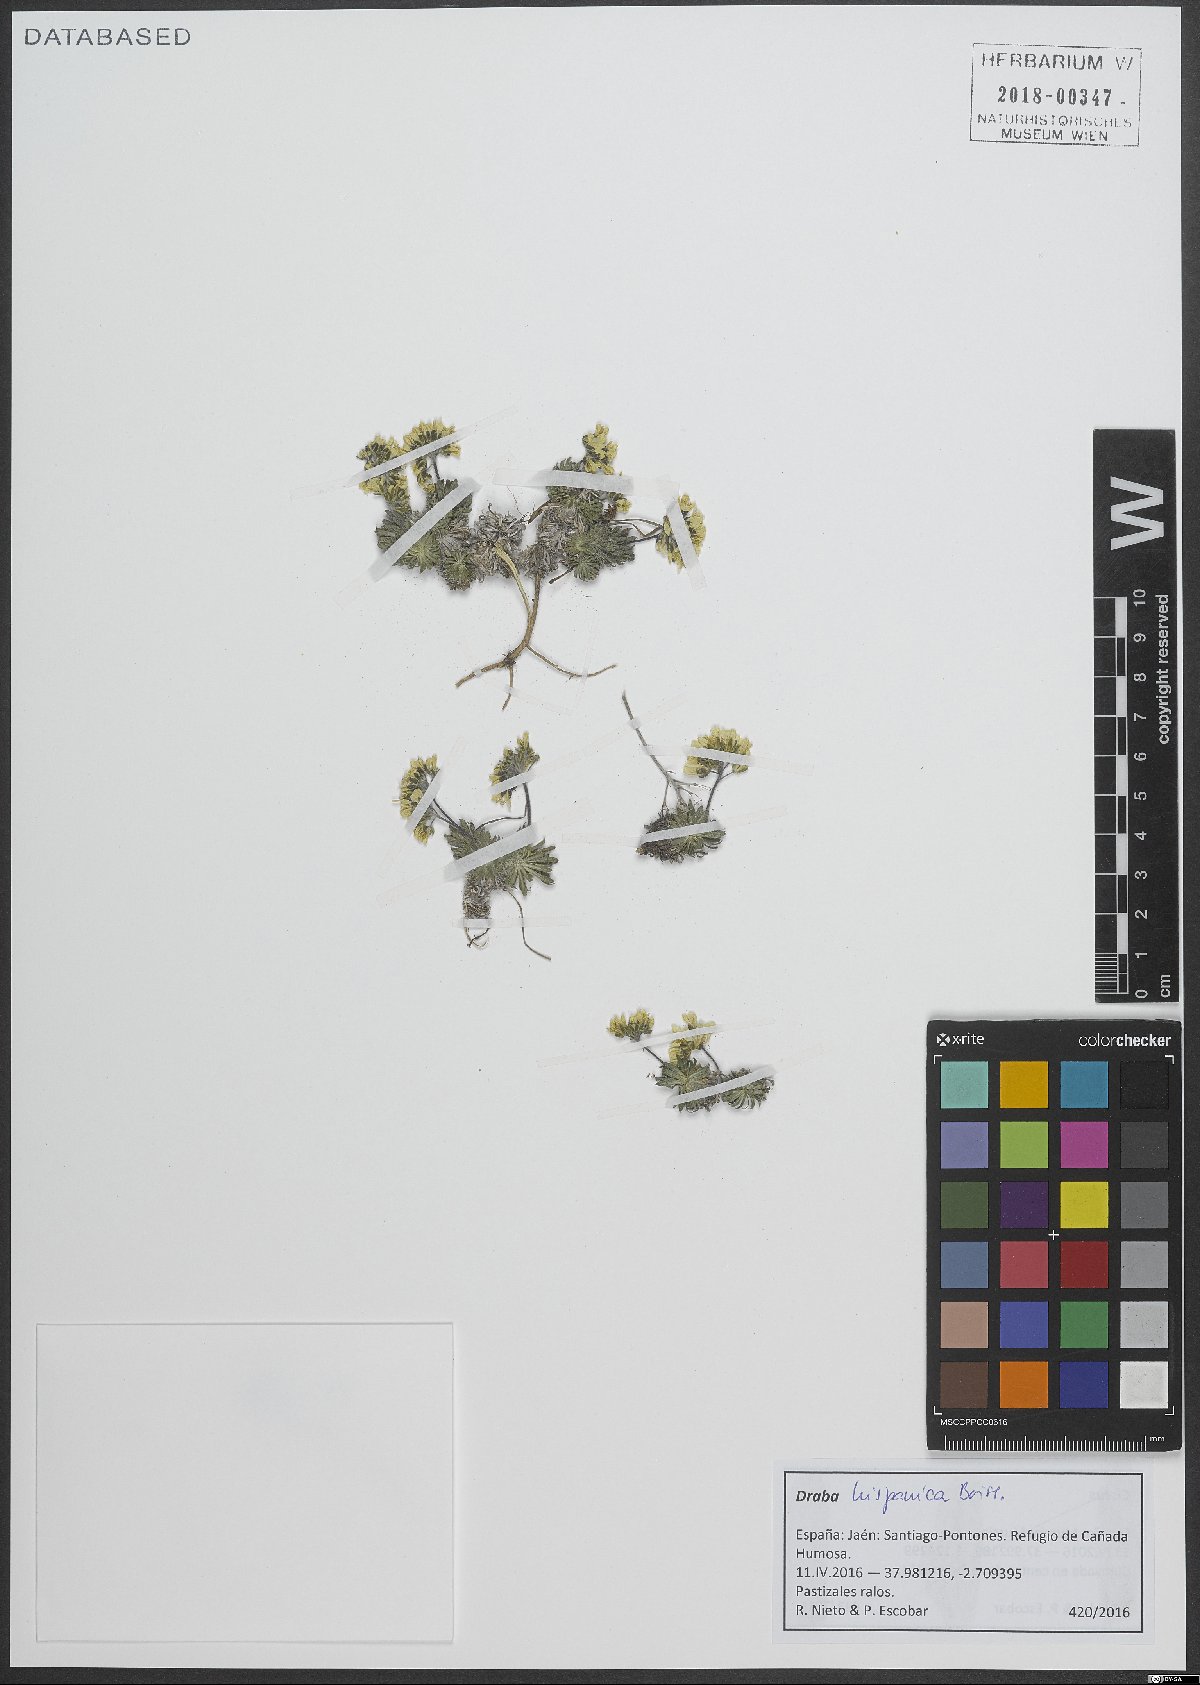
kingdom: Plantae
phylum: Tracheophyta
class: Magnoliopsida
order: Brassicales
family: Brassicaceae
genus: Draba
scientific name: Draba hispanica
